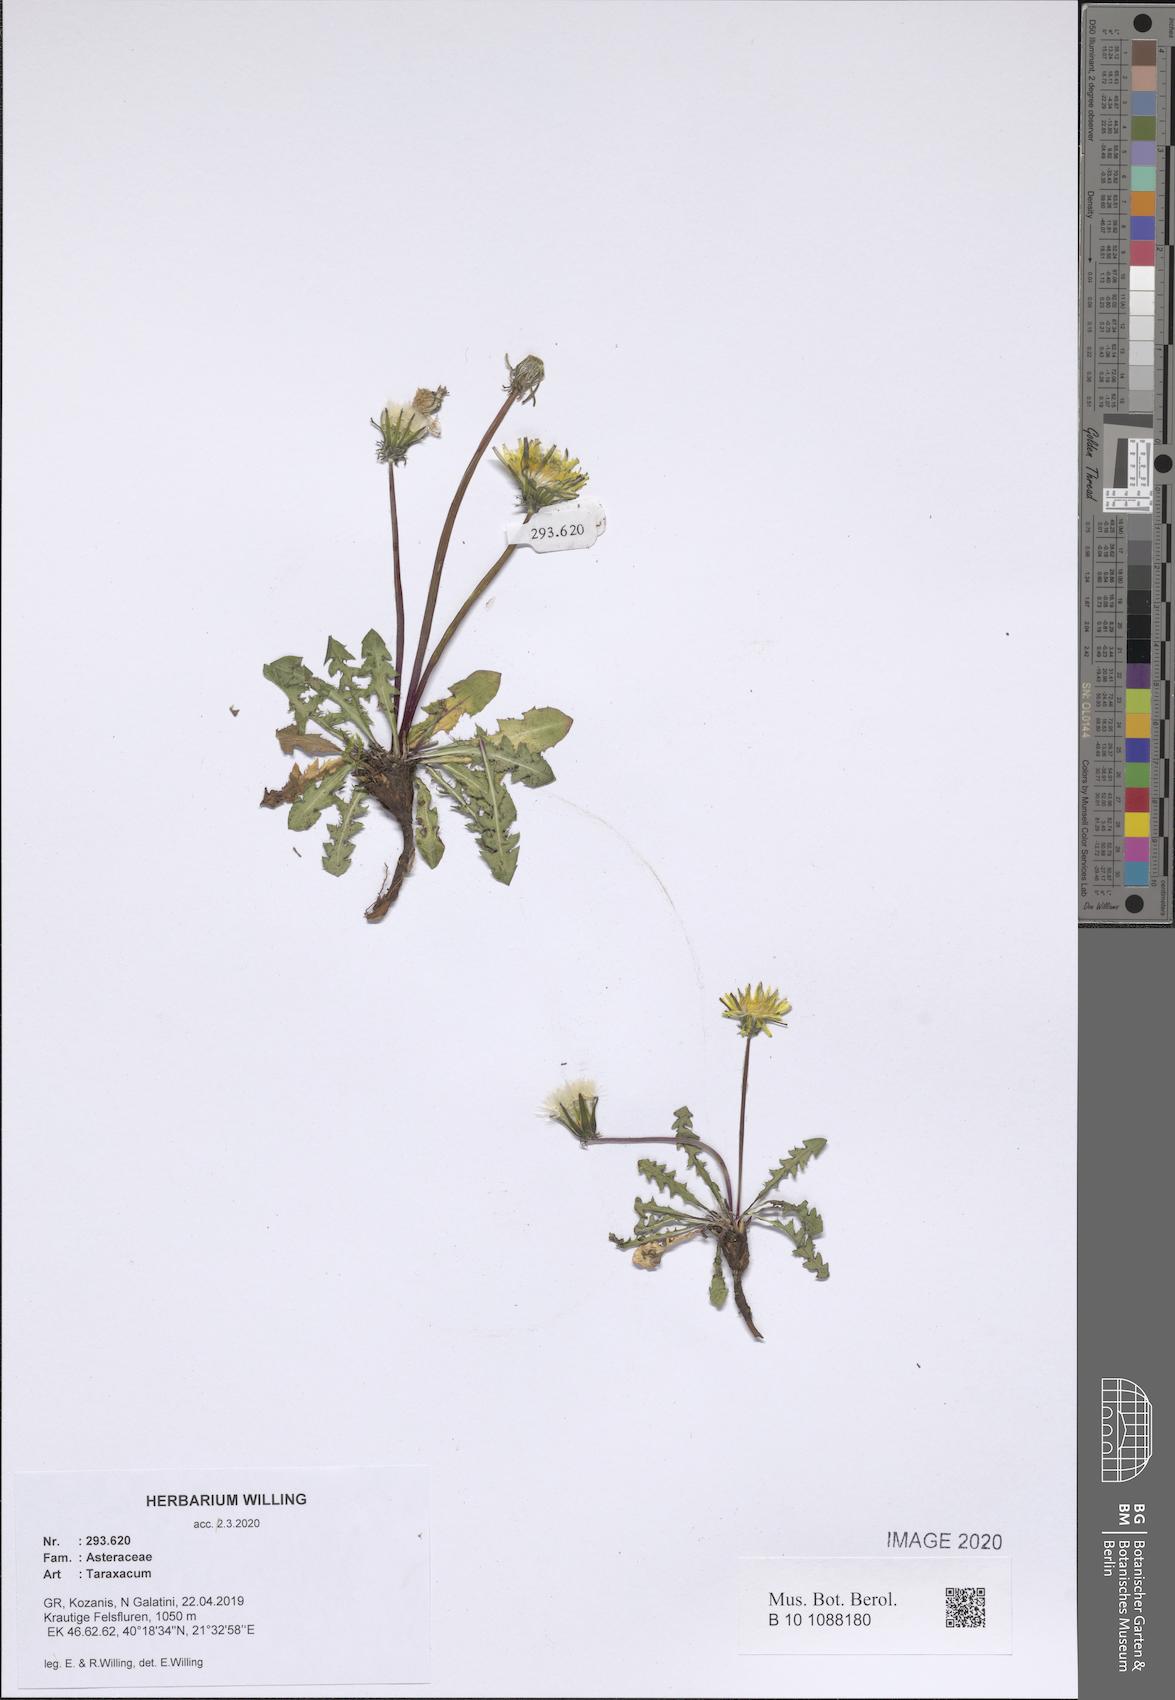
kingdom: Plantae
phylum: Tracheophyta
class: Magnoliopsida
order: Asterales
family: Asteraceae
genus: Taraxacum
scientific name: Taraxacum
